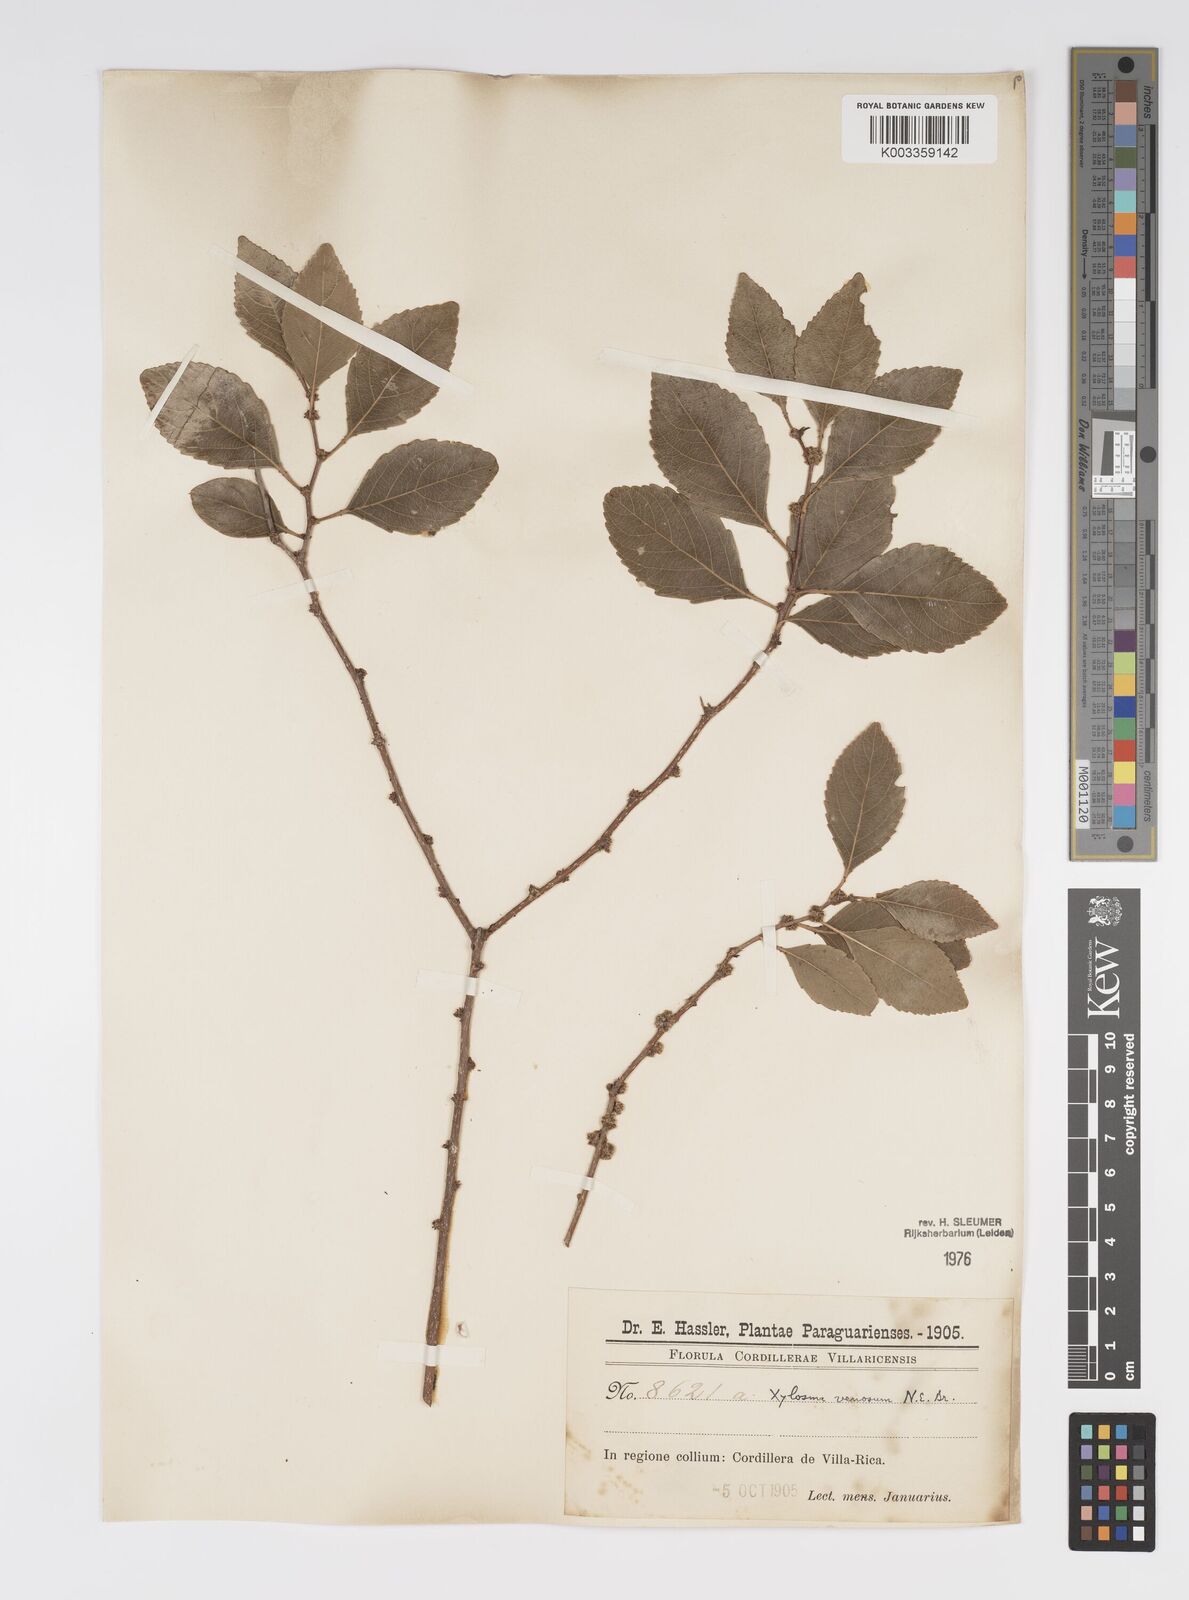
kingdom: Plantae
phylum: Tracheophyta
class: Magnoliopsida
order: Malpighiales
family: Salicaceae
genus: Xylosma
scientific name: Xylosma venosa
